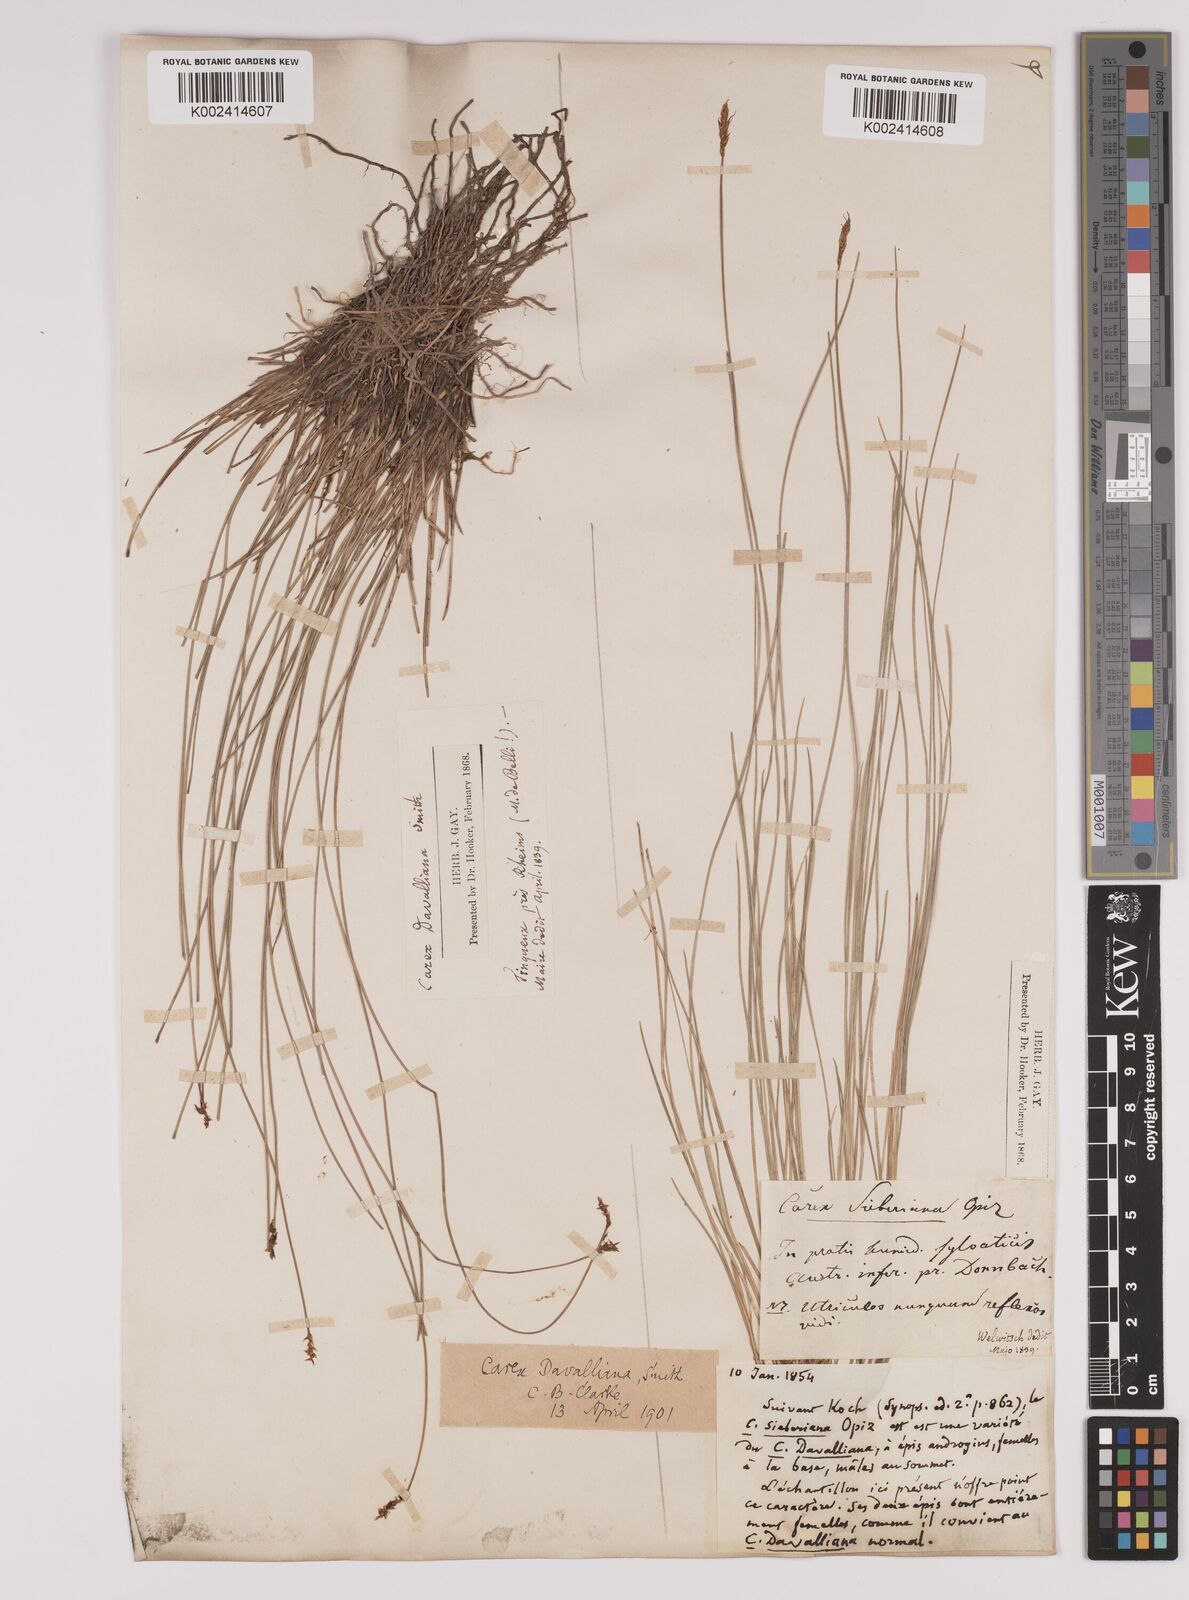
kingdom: Plantae
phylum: Tracheophyta
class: Liliopsida
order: Poales
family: Cyperaceae
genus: Carex
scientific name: Carex davalliana
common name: Davall's sedge
